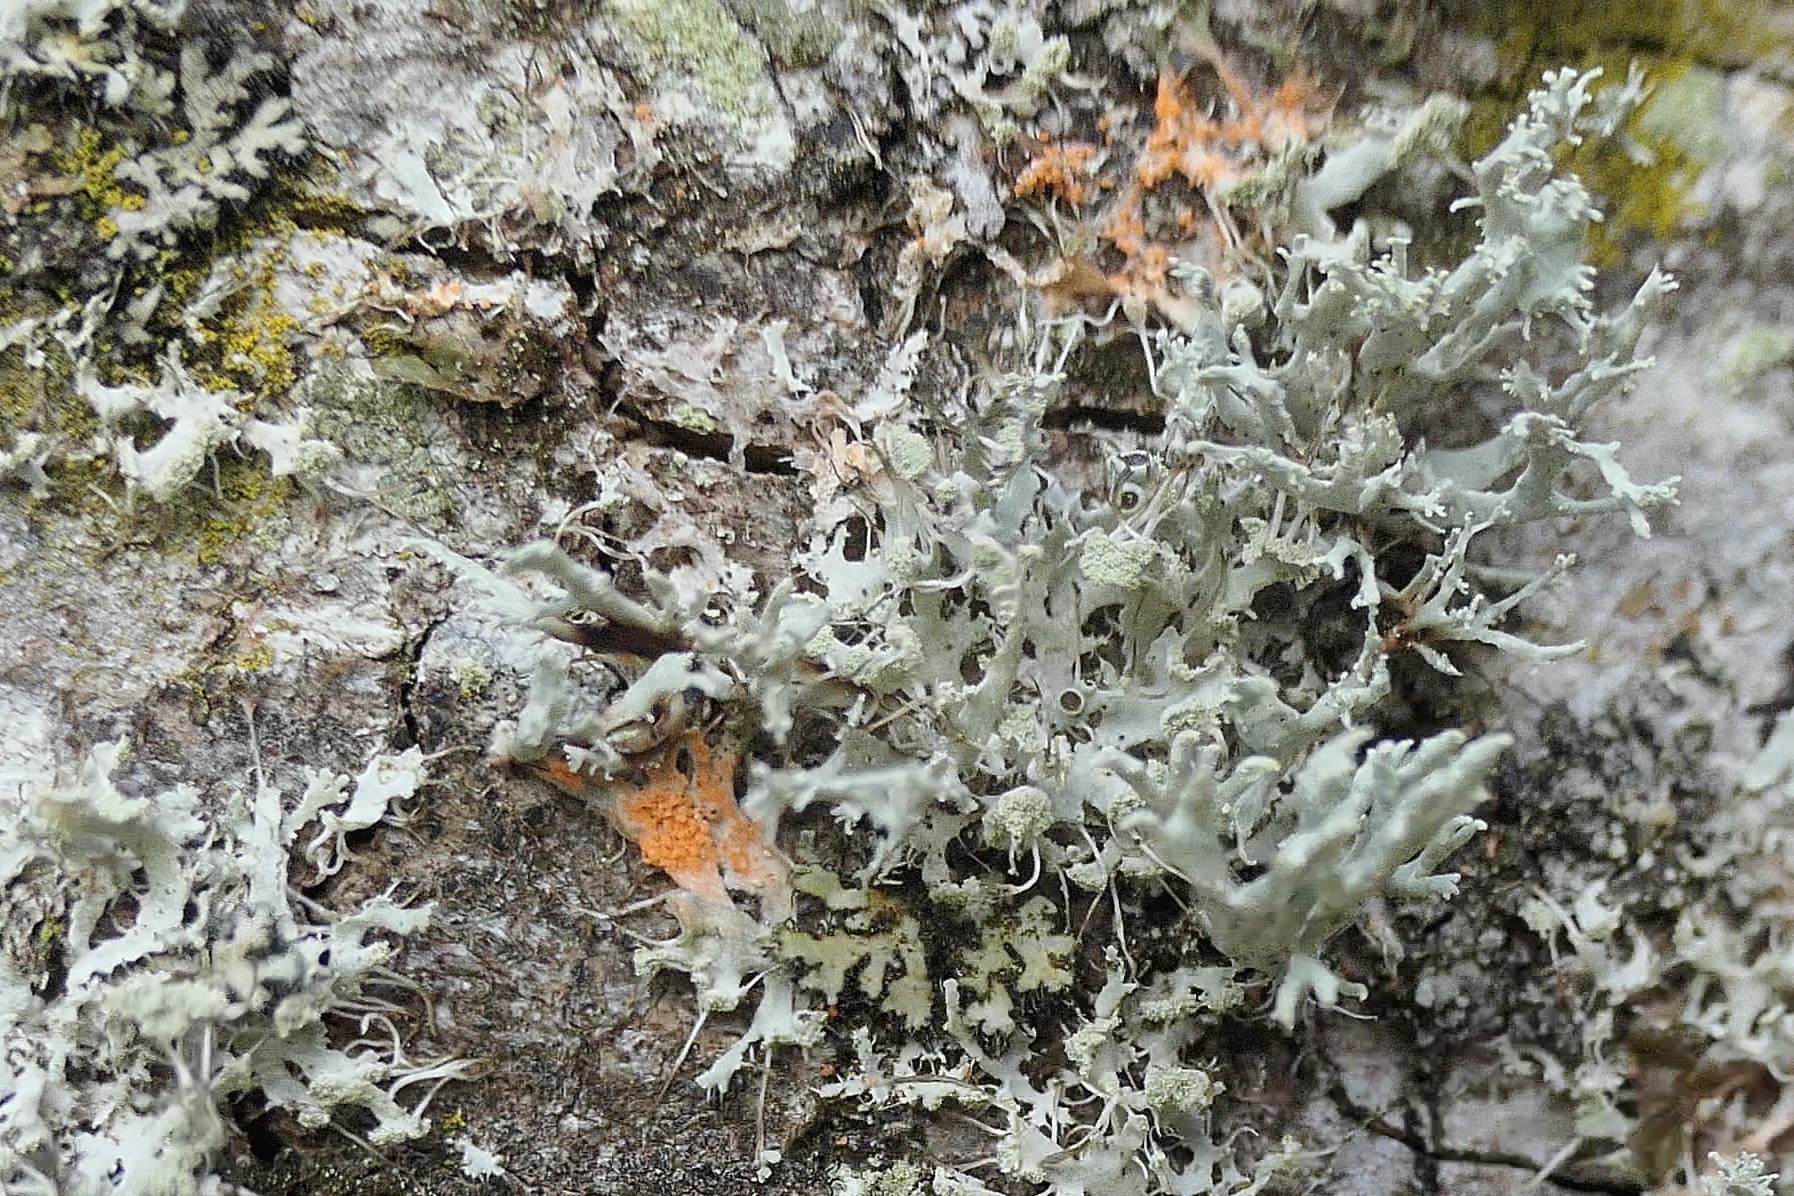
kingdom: Fungi
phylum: Basidiomycota
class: Agaricomycetes
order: Corticiales
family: Corticiaceae
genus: Erythricium
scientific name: Erythricium aurantiacum
